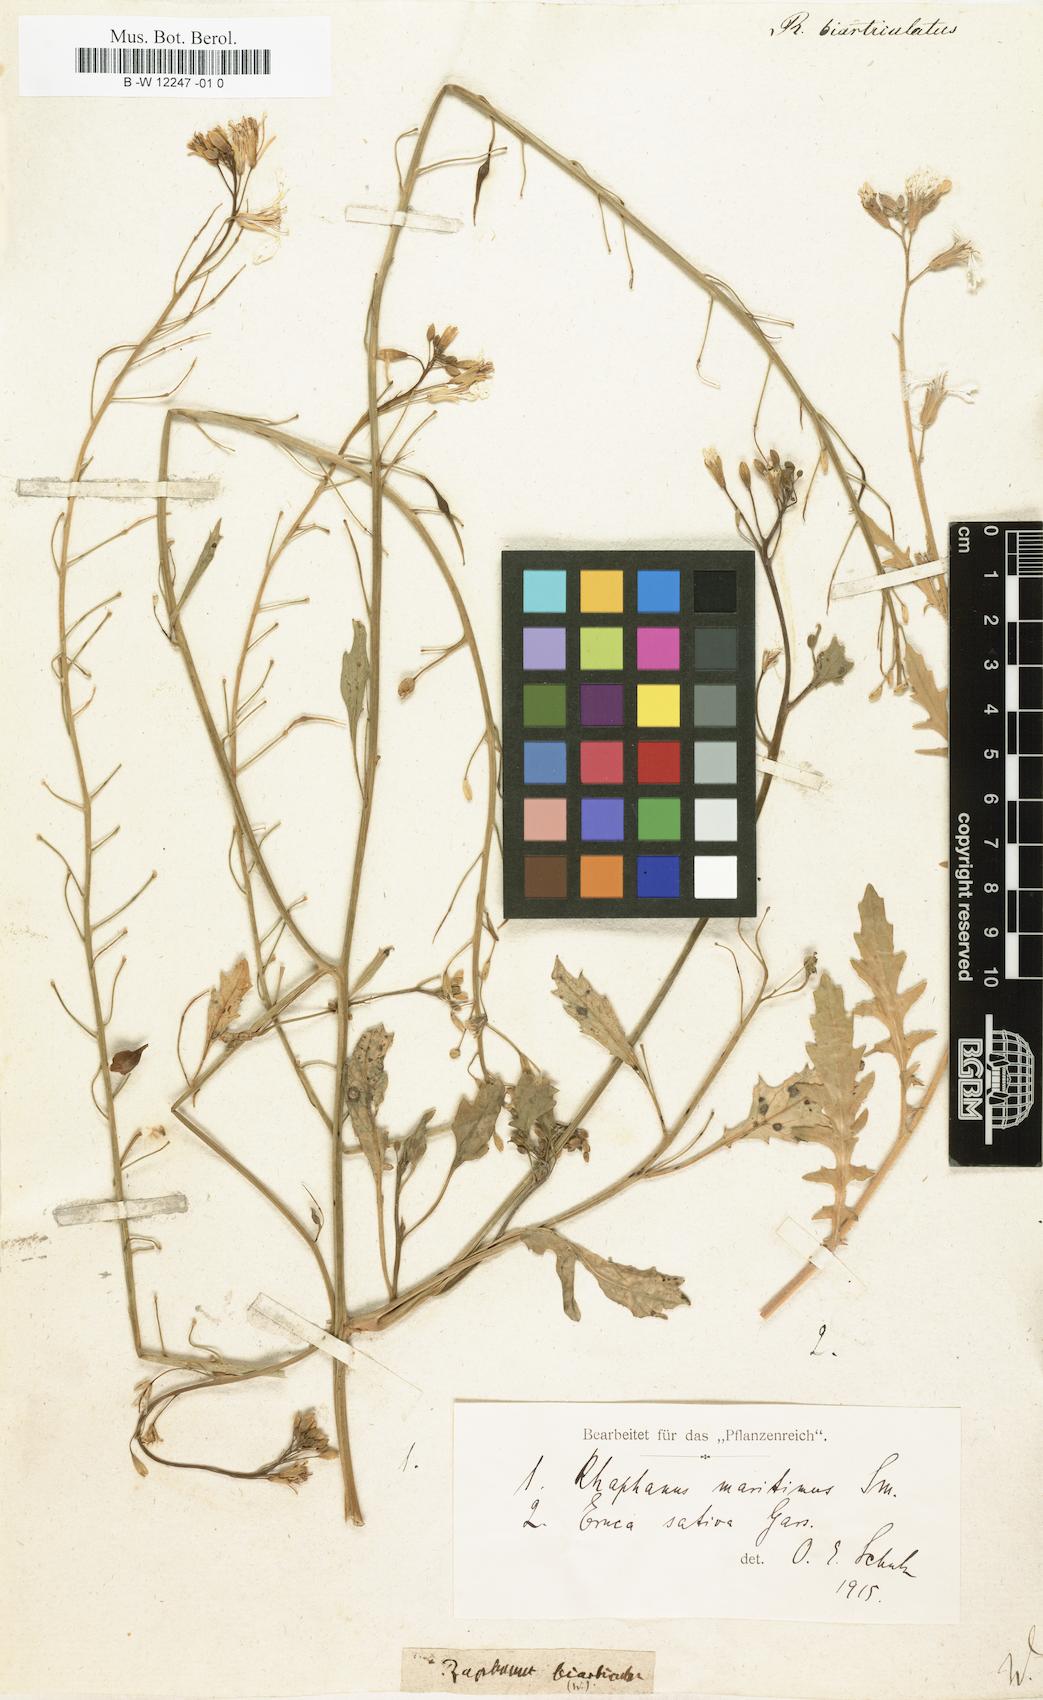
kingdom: Plantae
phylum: Tracheophyta
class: Magnoliopsida
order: Brassicales
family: Brassicaceae
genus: Raphanus
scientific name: Raphanus raphanistrum
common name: Wild radish
